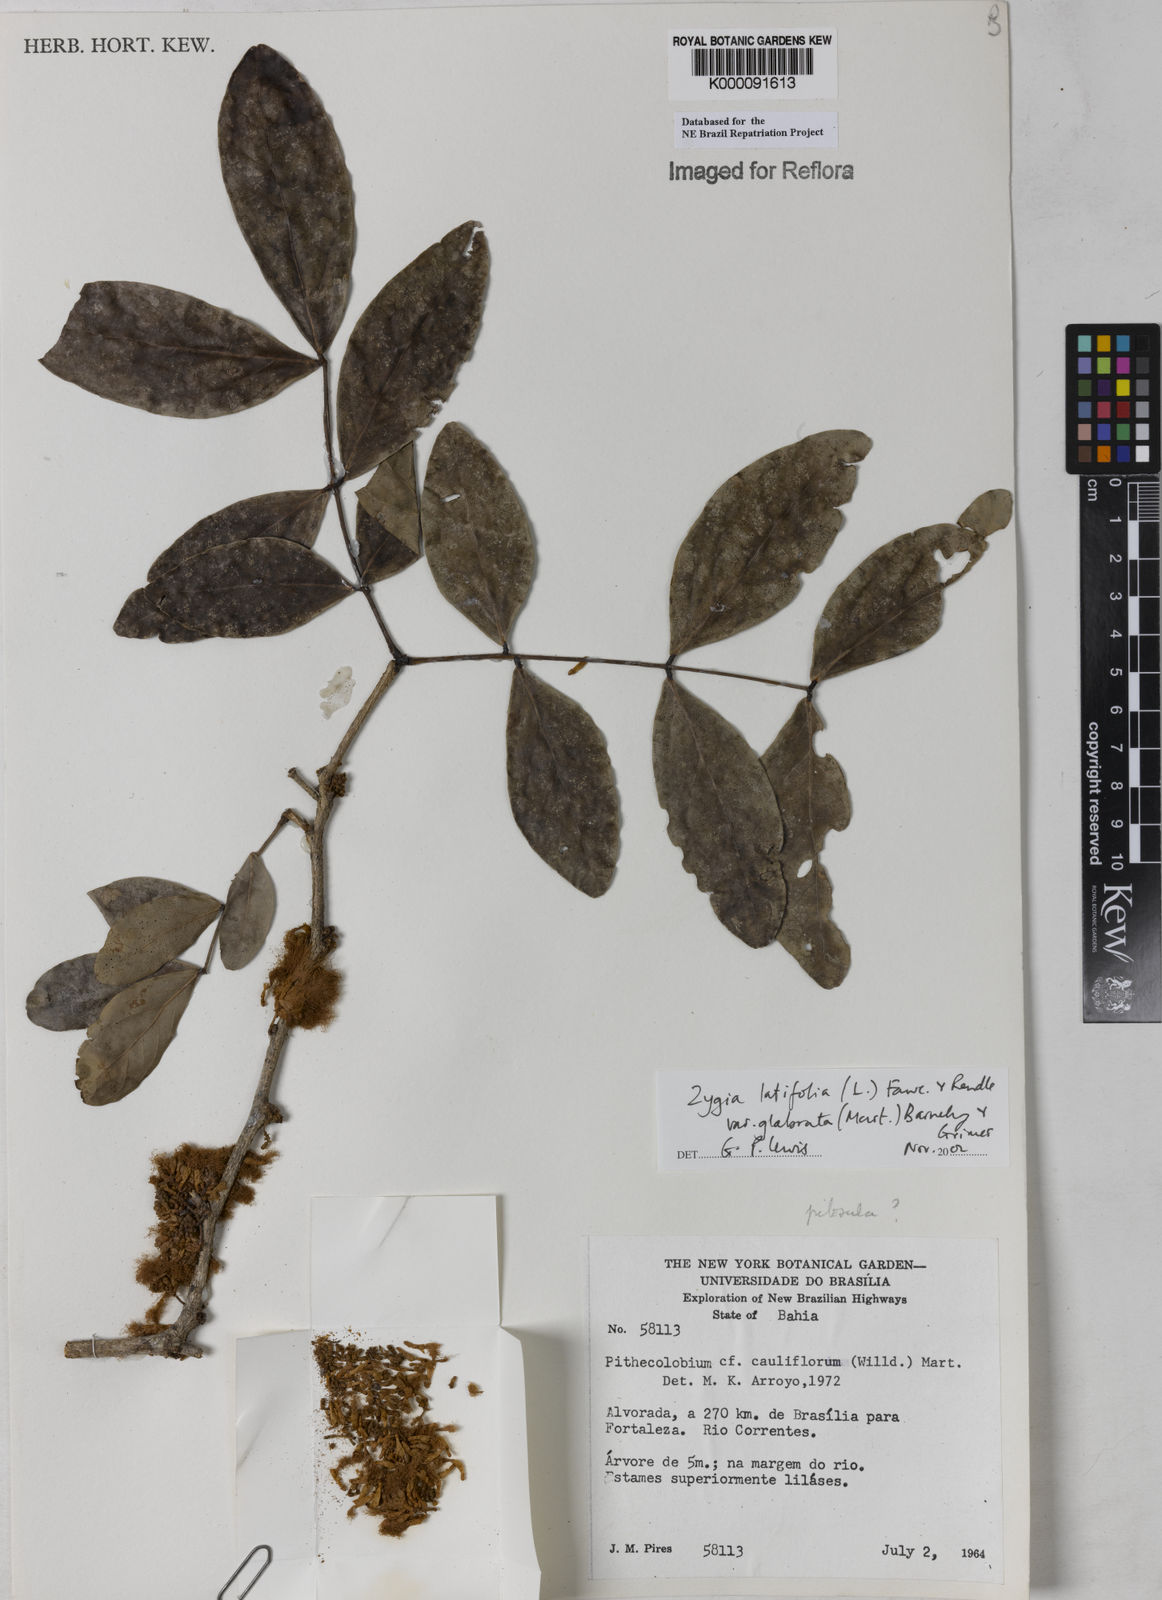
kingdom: Plantae
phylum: Tracheophyta
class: Magnoliopsida
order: Fabales
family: Fabaceae
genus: Zygia
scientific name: Zygia latifolia
